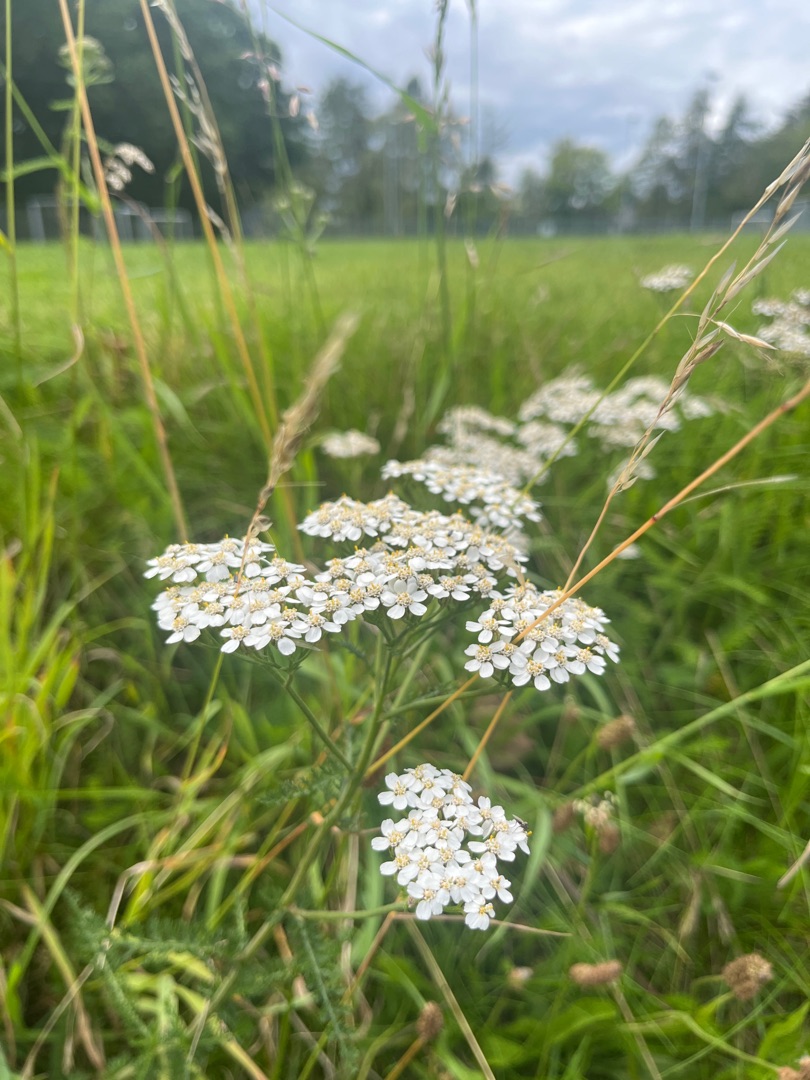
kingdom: Plantae
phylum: Tracheophyta
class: Magnoliopsida
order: Asterales
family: Asteraceae
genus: Achillea
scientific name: Achillea millefolium
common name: Almindelig røllike
